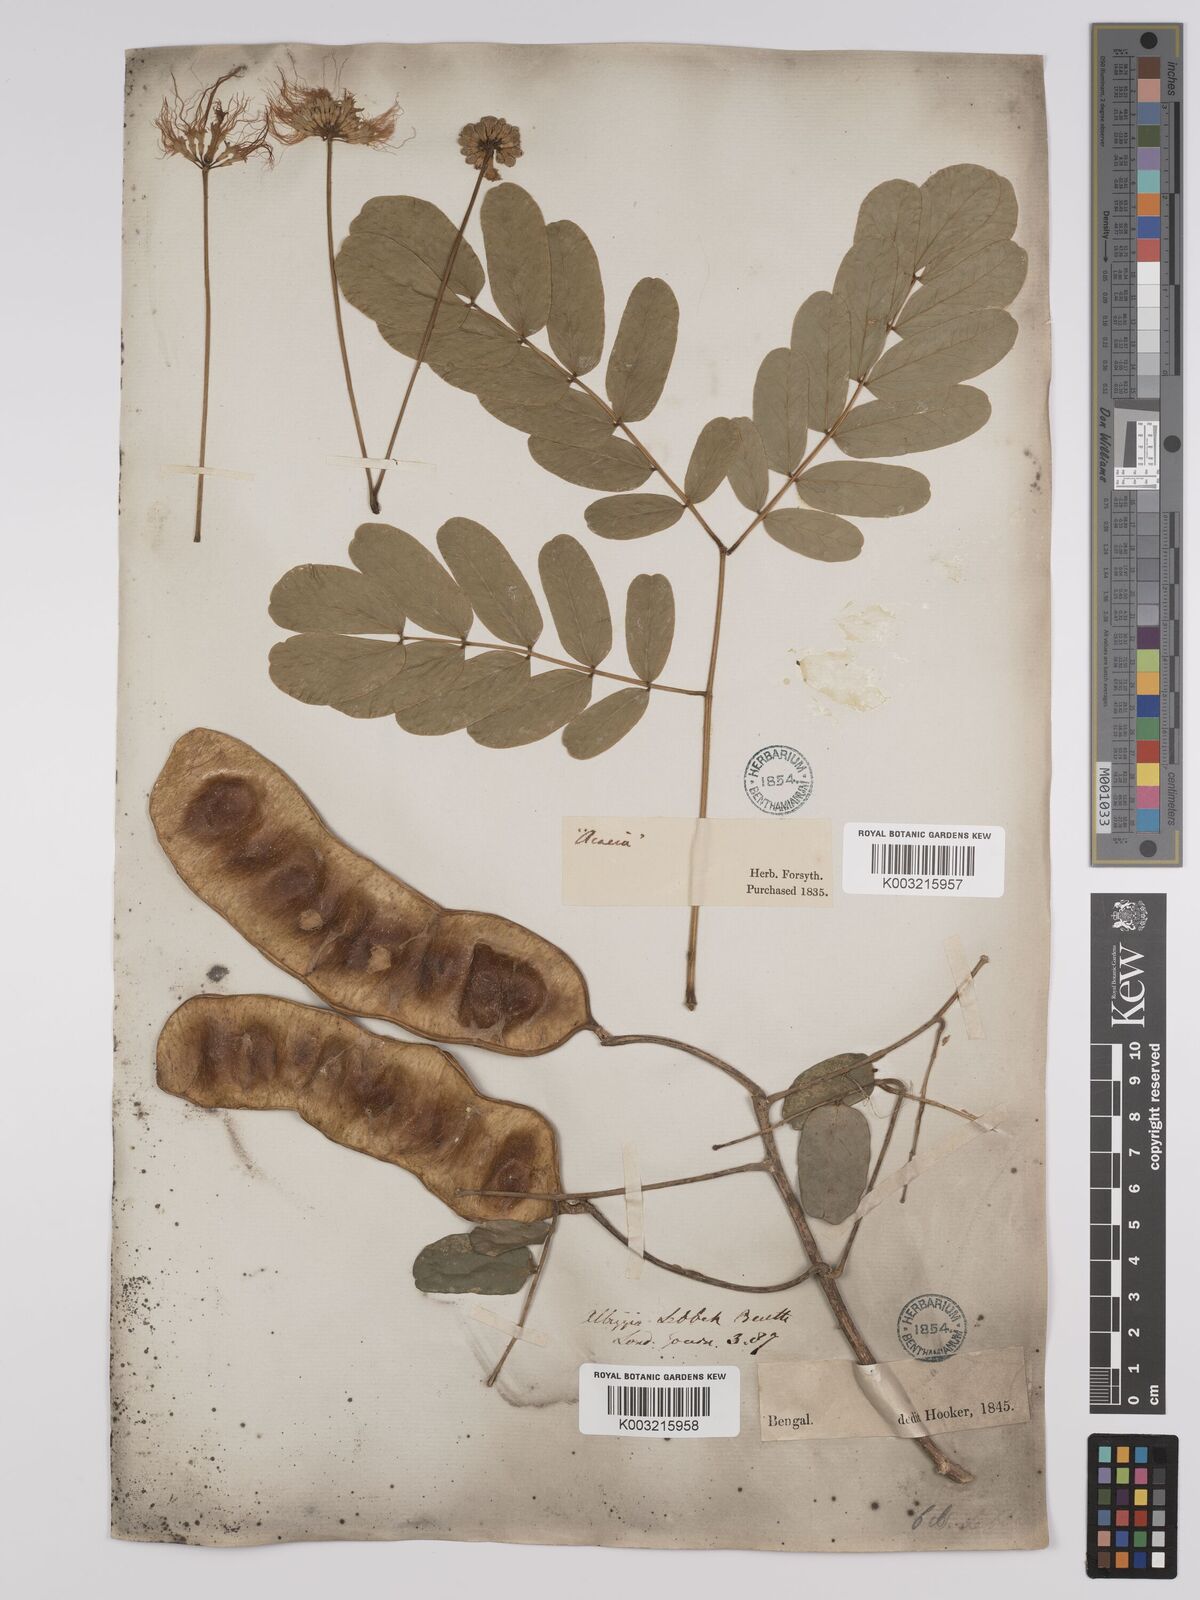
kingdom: Plantae
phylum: Tracheophyta
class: Magnoliopsida
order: Fabales
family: Fabaceae
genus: Albizia
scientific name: Albizia lebbeck
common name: Woman's tongue
